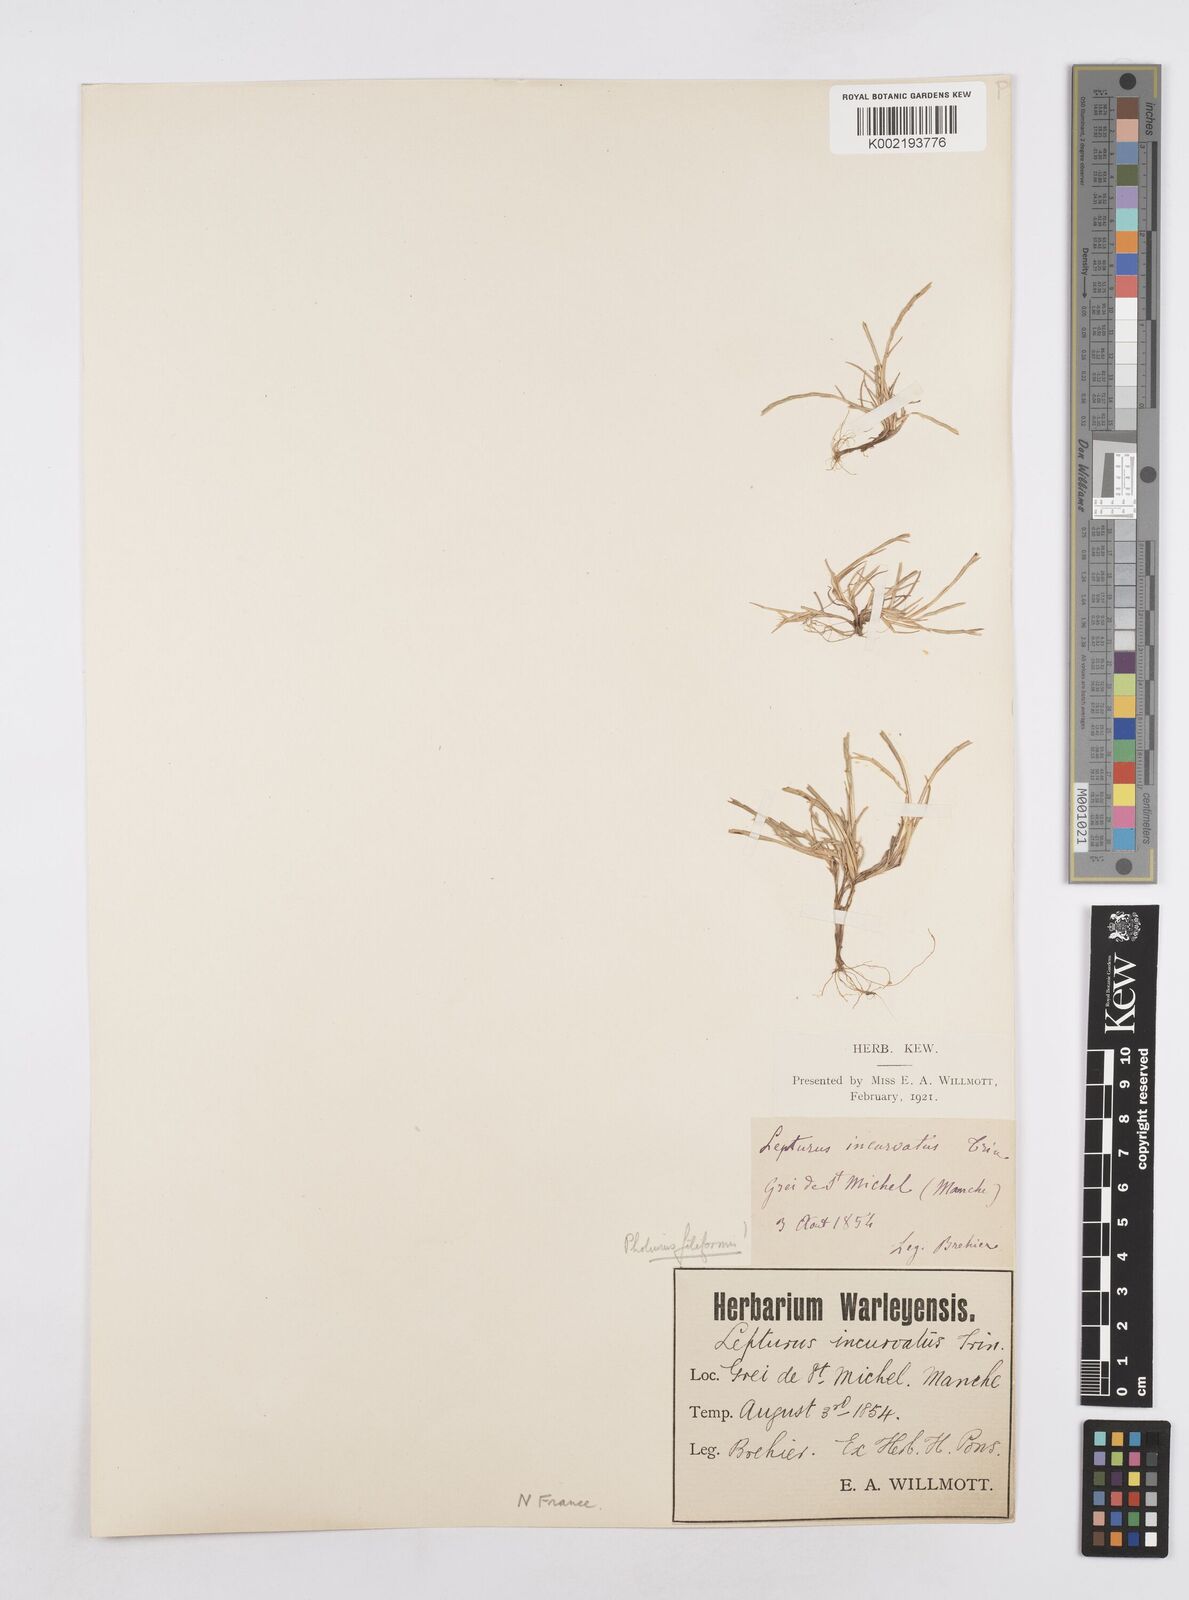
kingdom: Plantae
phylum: Tracheophyta
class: Liliopsida
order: Poales
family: Poaceae
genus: Parapholis
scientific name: Parapholis strigosa
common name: Hard-grass
